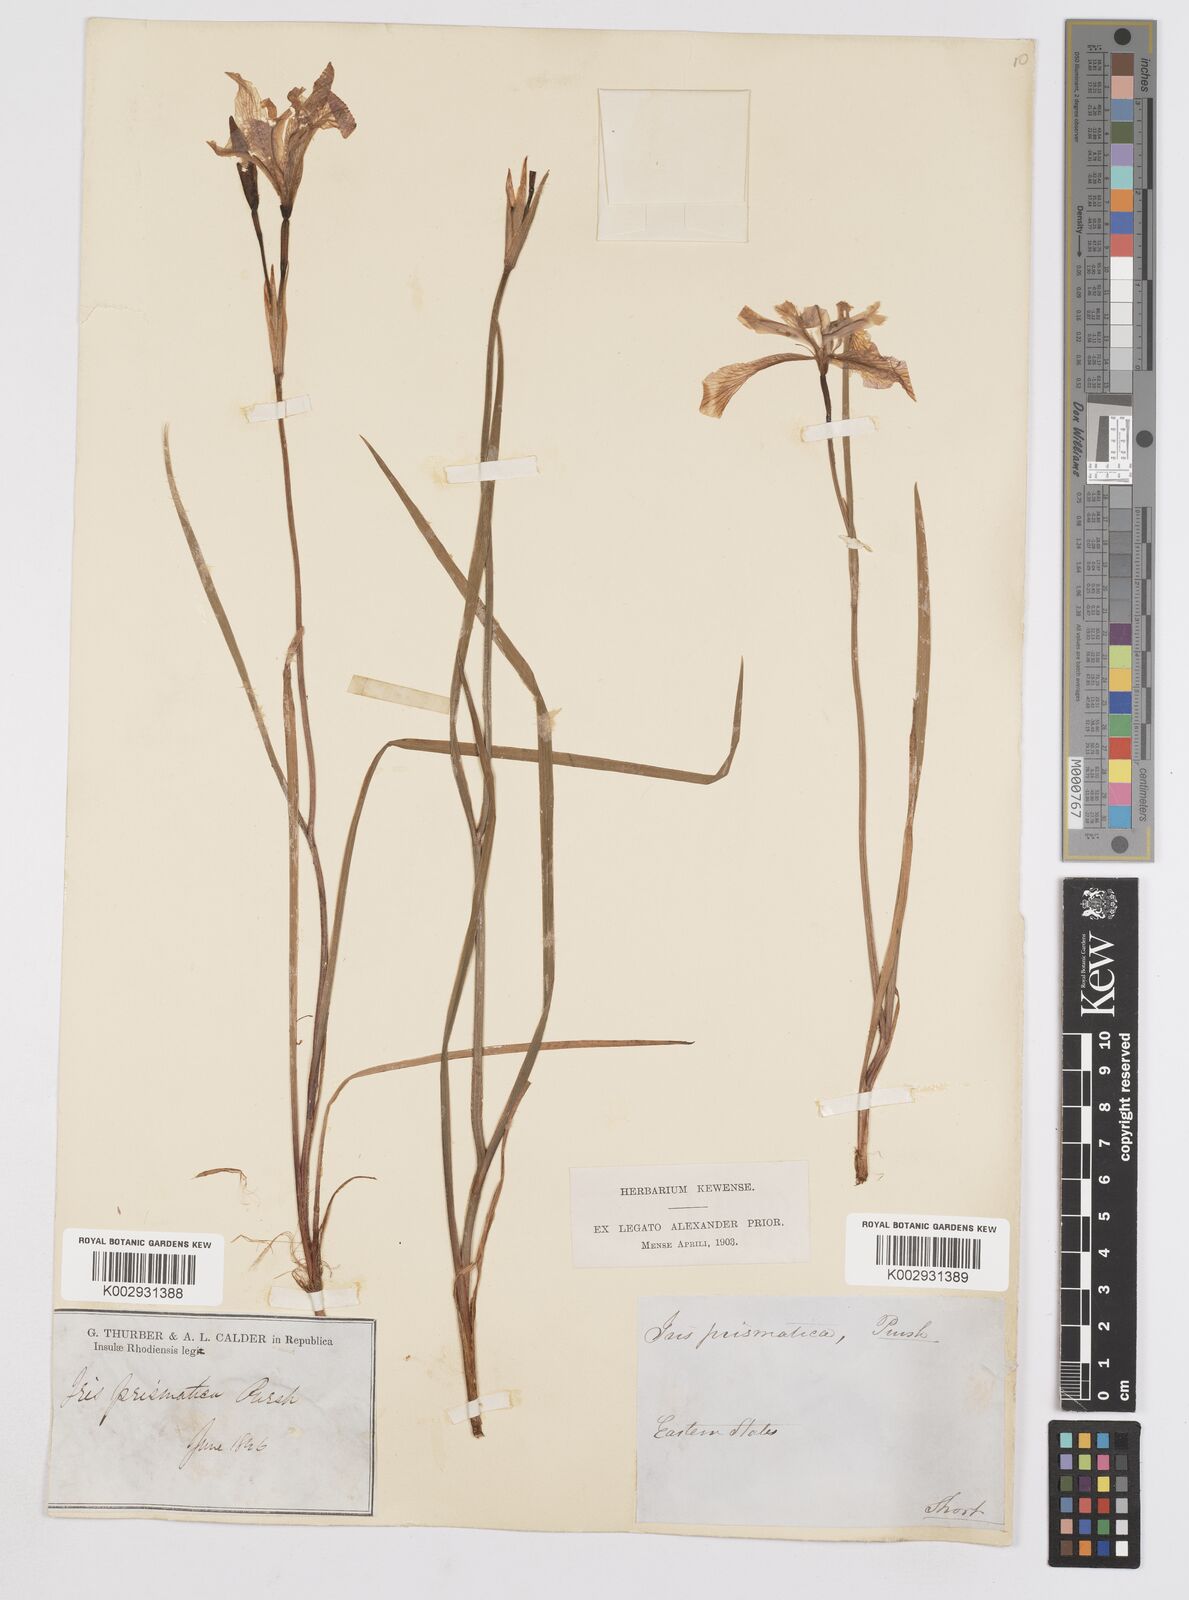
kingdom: Plantae
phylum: Tracheophyta
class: Liliopsida
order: Asparagales
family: Iridaceae
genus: Iris
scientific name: Iris prismatica
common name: Slender blue flag
